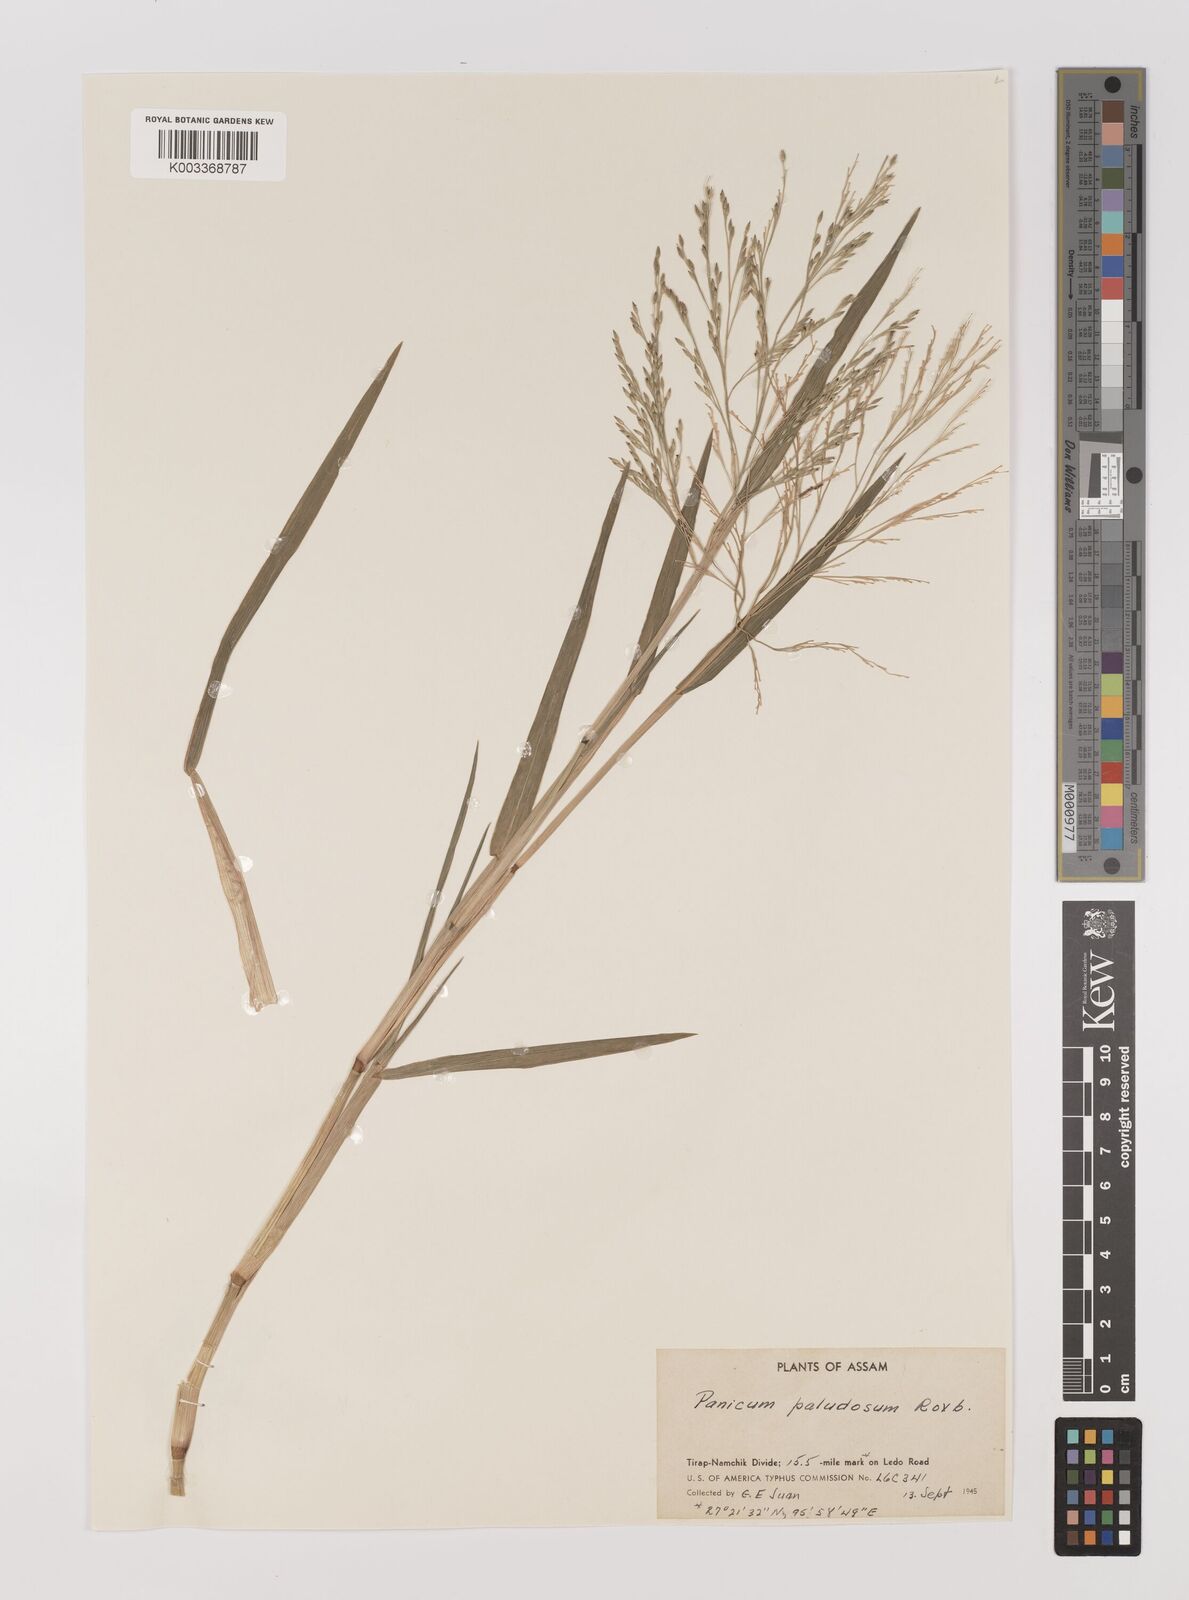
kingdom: Plantae
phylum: Tracheophyta
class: Liliopsida
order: Poales
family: Poaceae
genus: Louisiella
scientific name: Louisiella paludosa
